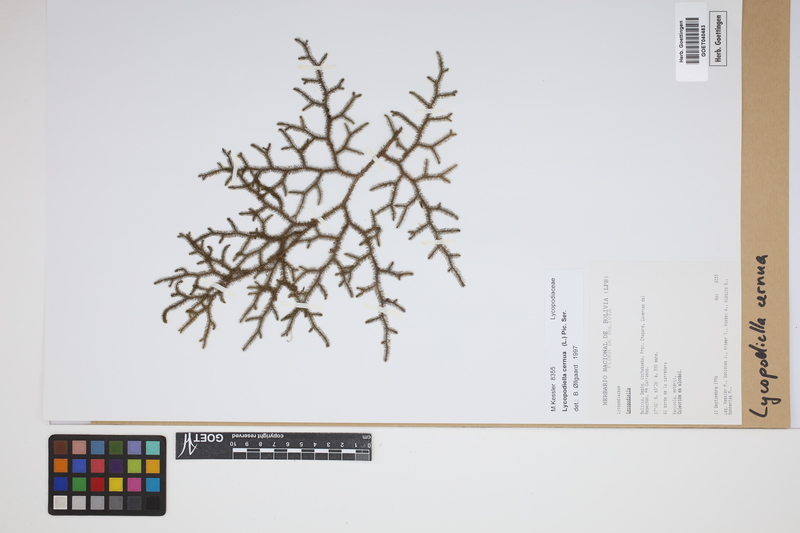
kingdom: Plantae
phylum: Tracheophyta
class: Lycopodiopsida
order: Lycopodiales
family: Lycopodiaceae
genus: Palhinhaea
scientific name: Palhinhaea cernua
